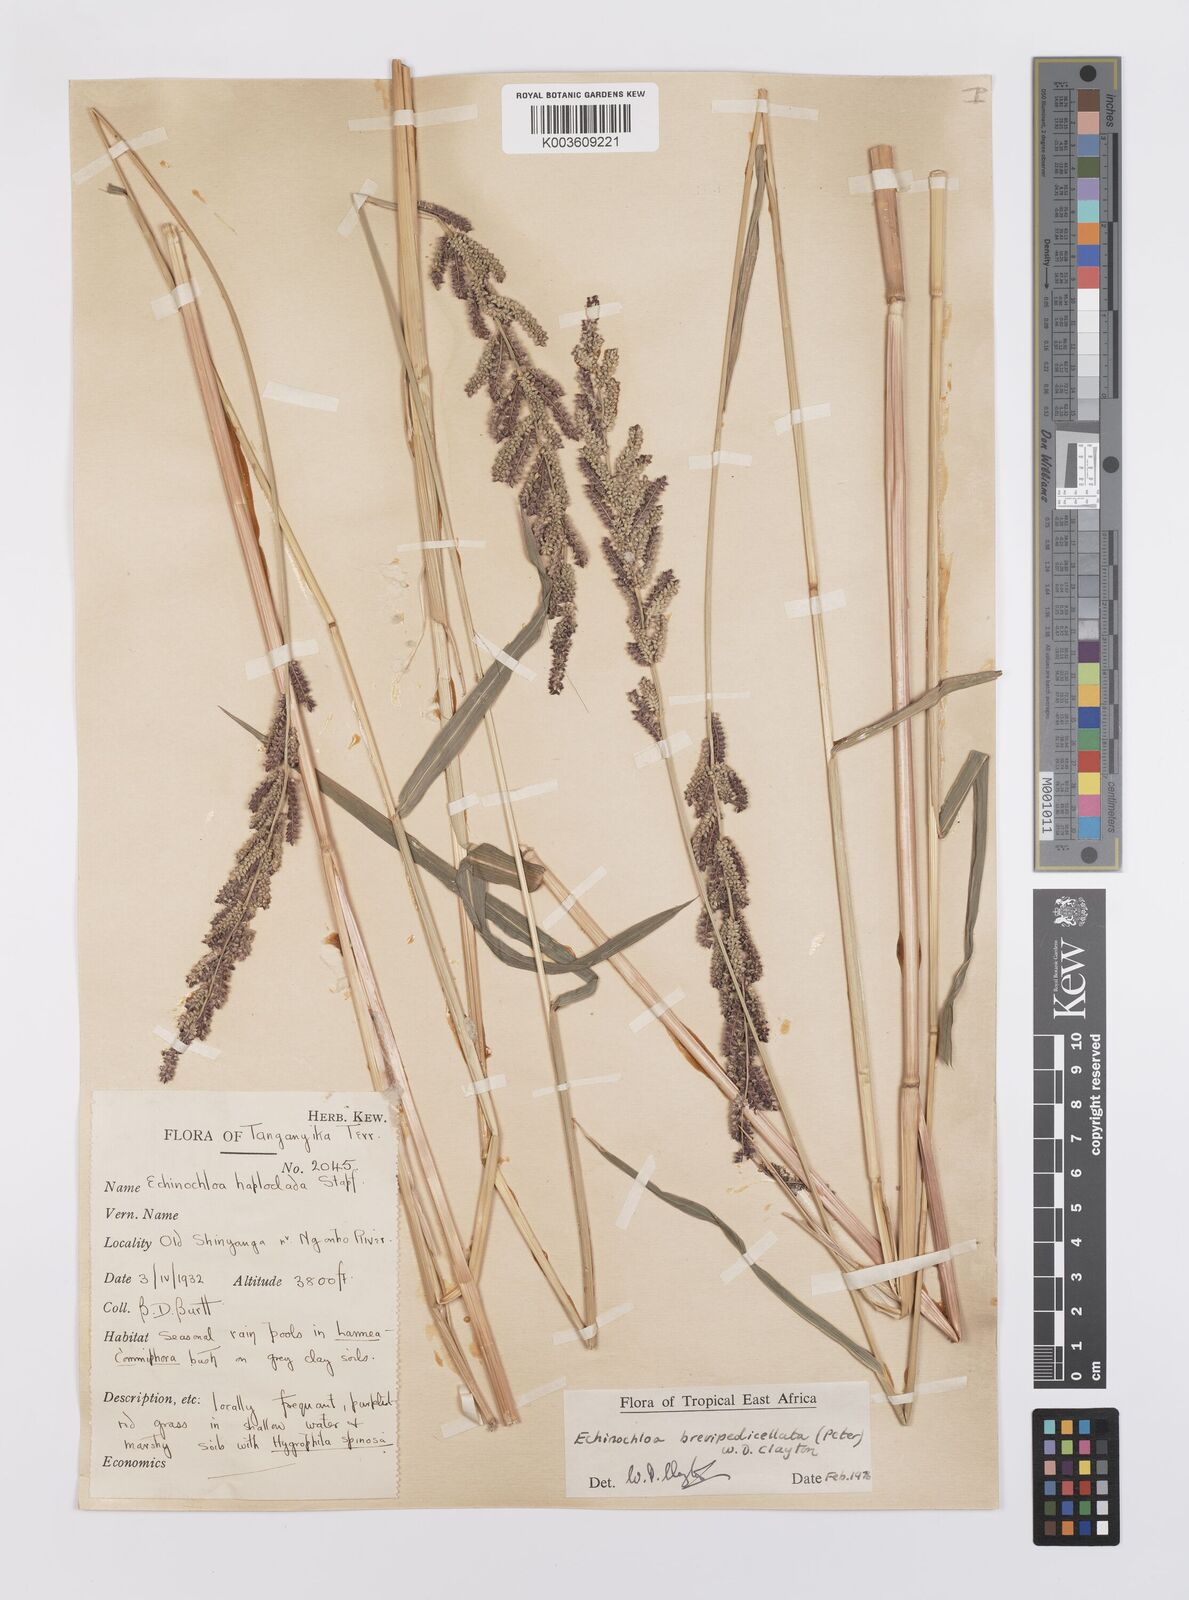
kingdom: Plantae
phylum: Tracheophyta
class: Liliopsida
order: Poales
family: Poaceae
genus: Echinochloa
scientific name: Echinochloa brevipedicellata
